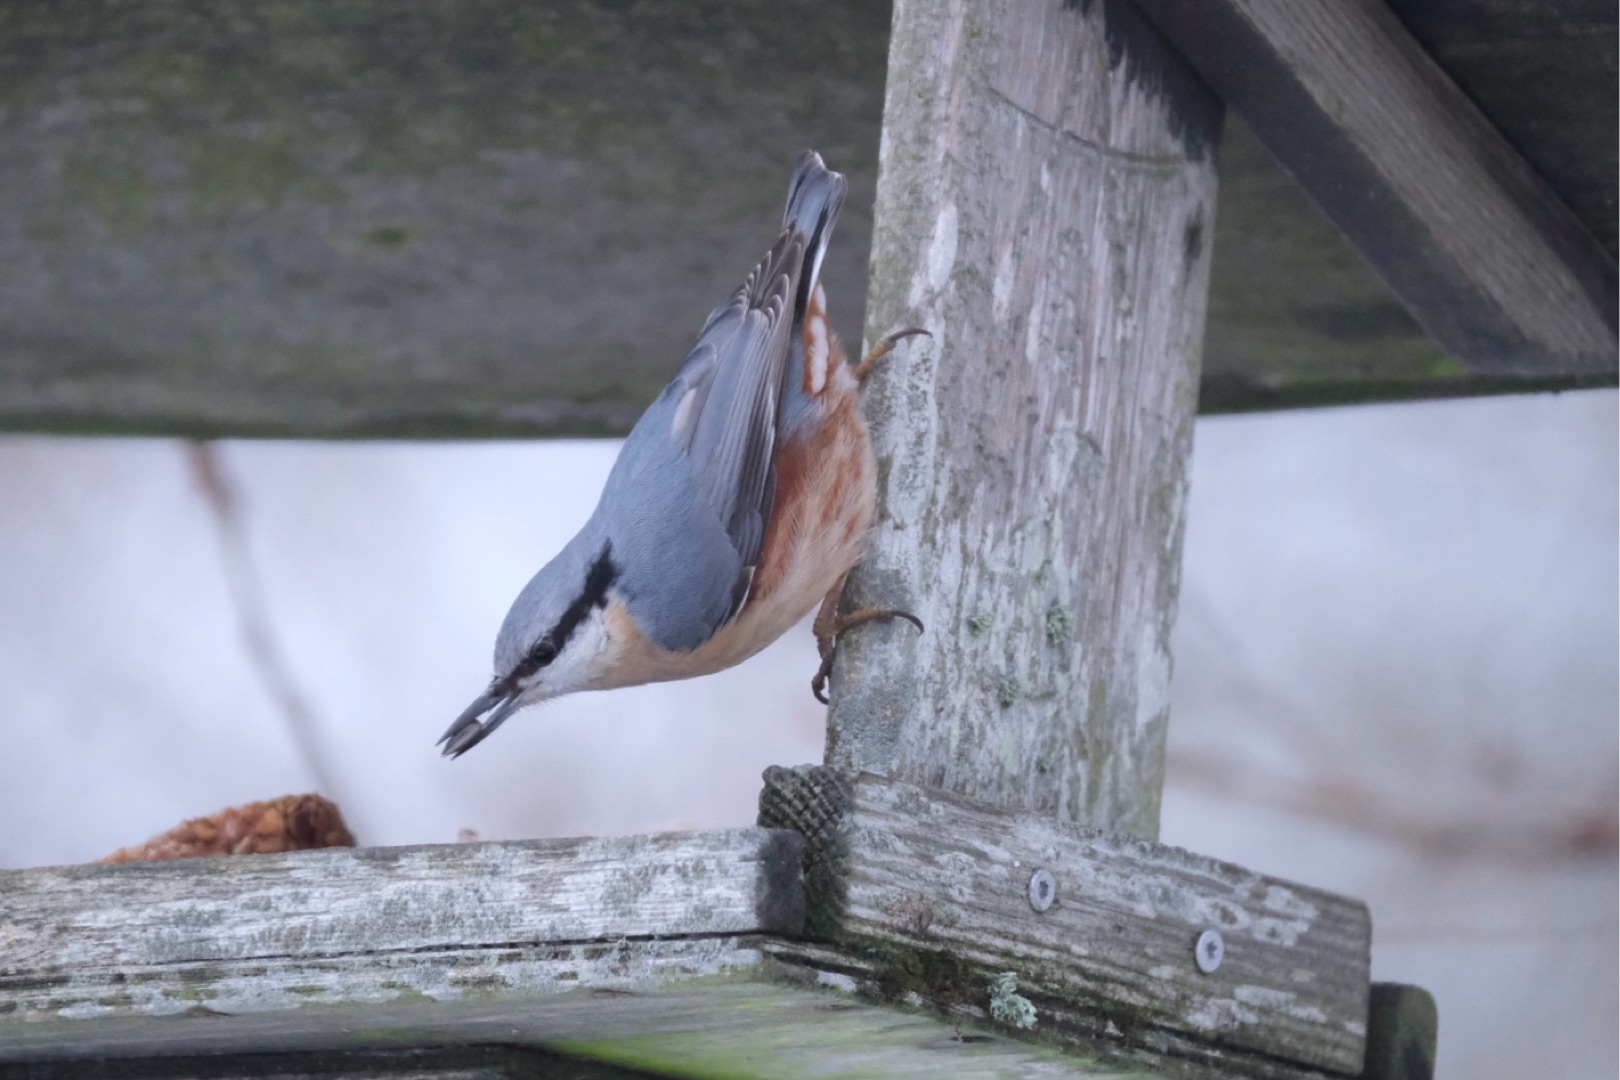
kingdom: Animalia
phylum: Chordata
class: Aves
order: Passeriformes
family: Sittidae
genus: Sitta
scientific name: Sitta europaea
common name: Spætmejse
